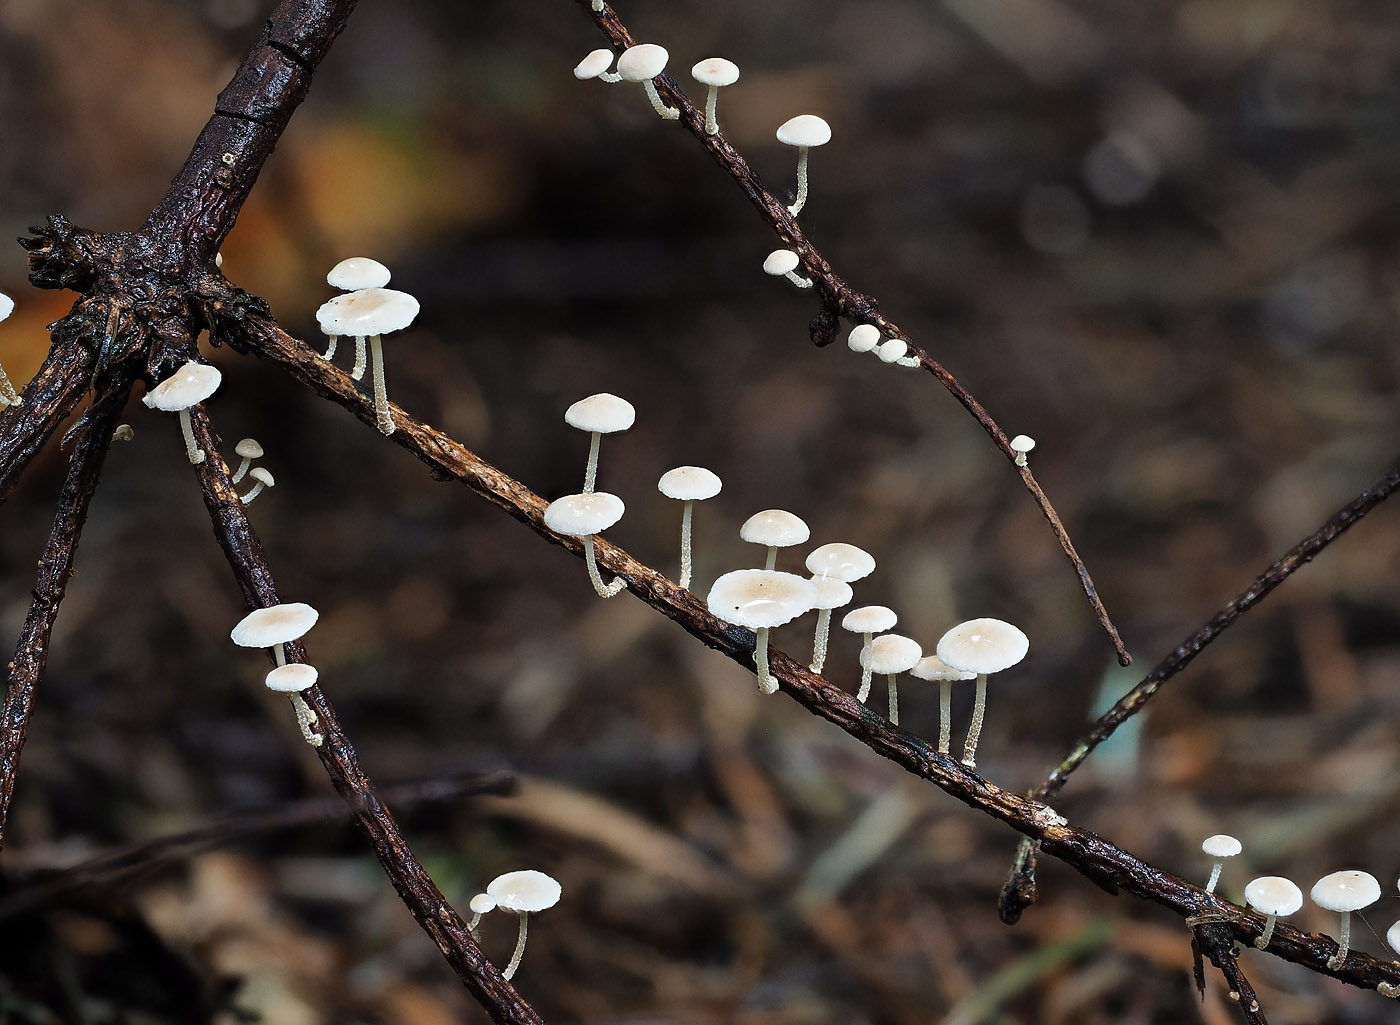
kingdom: Fungi
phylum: Basidiomycota
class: Agaricomycetes
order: Agaricales
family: Omphalotaceae
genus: Collybiopsis
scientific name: Collybiopsis ramealis
